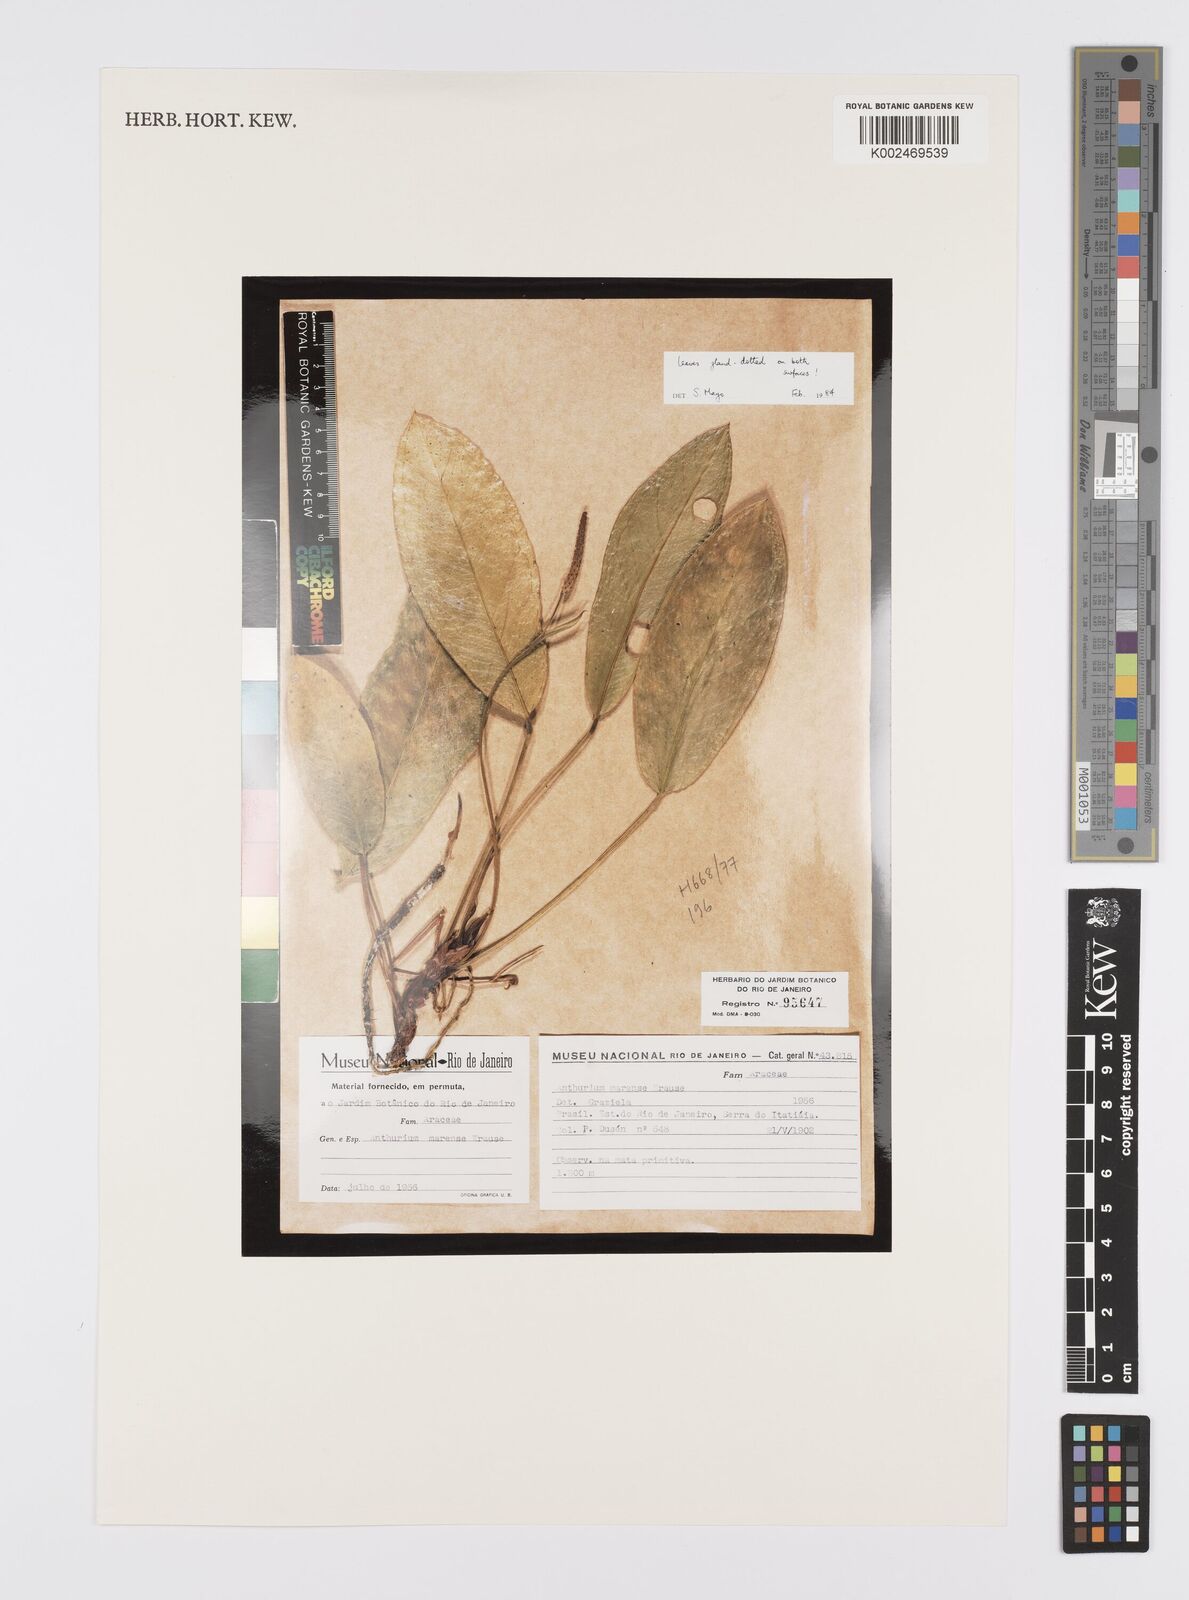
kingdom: Plantae
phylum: Tracheophyta
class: Liliopsida
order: Alismatales
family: Araceae
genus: Anthurium
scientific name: Anthurium marense
